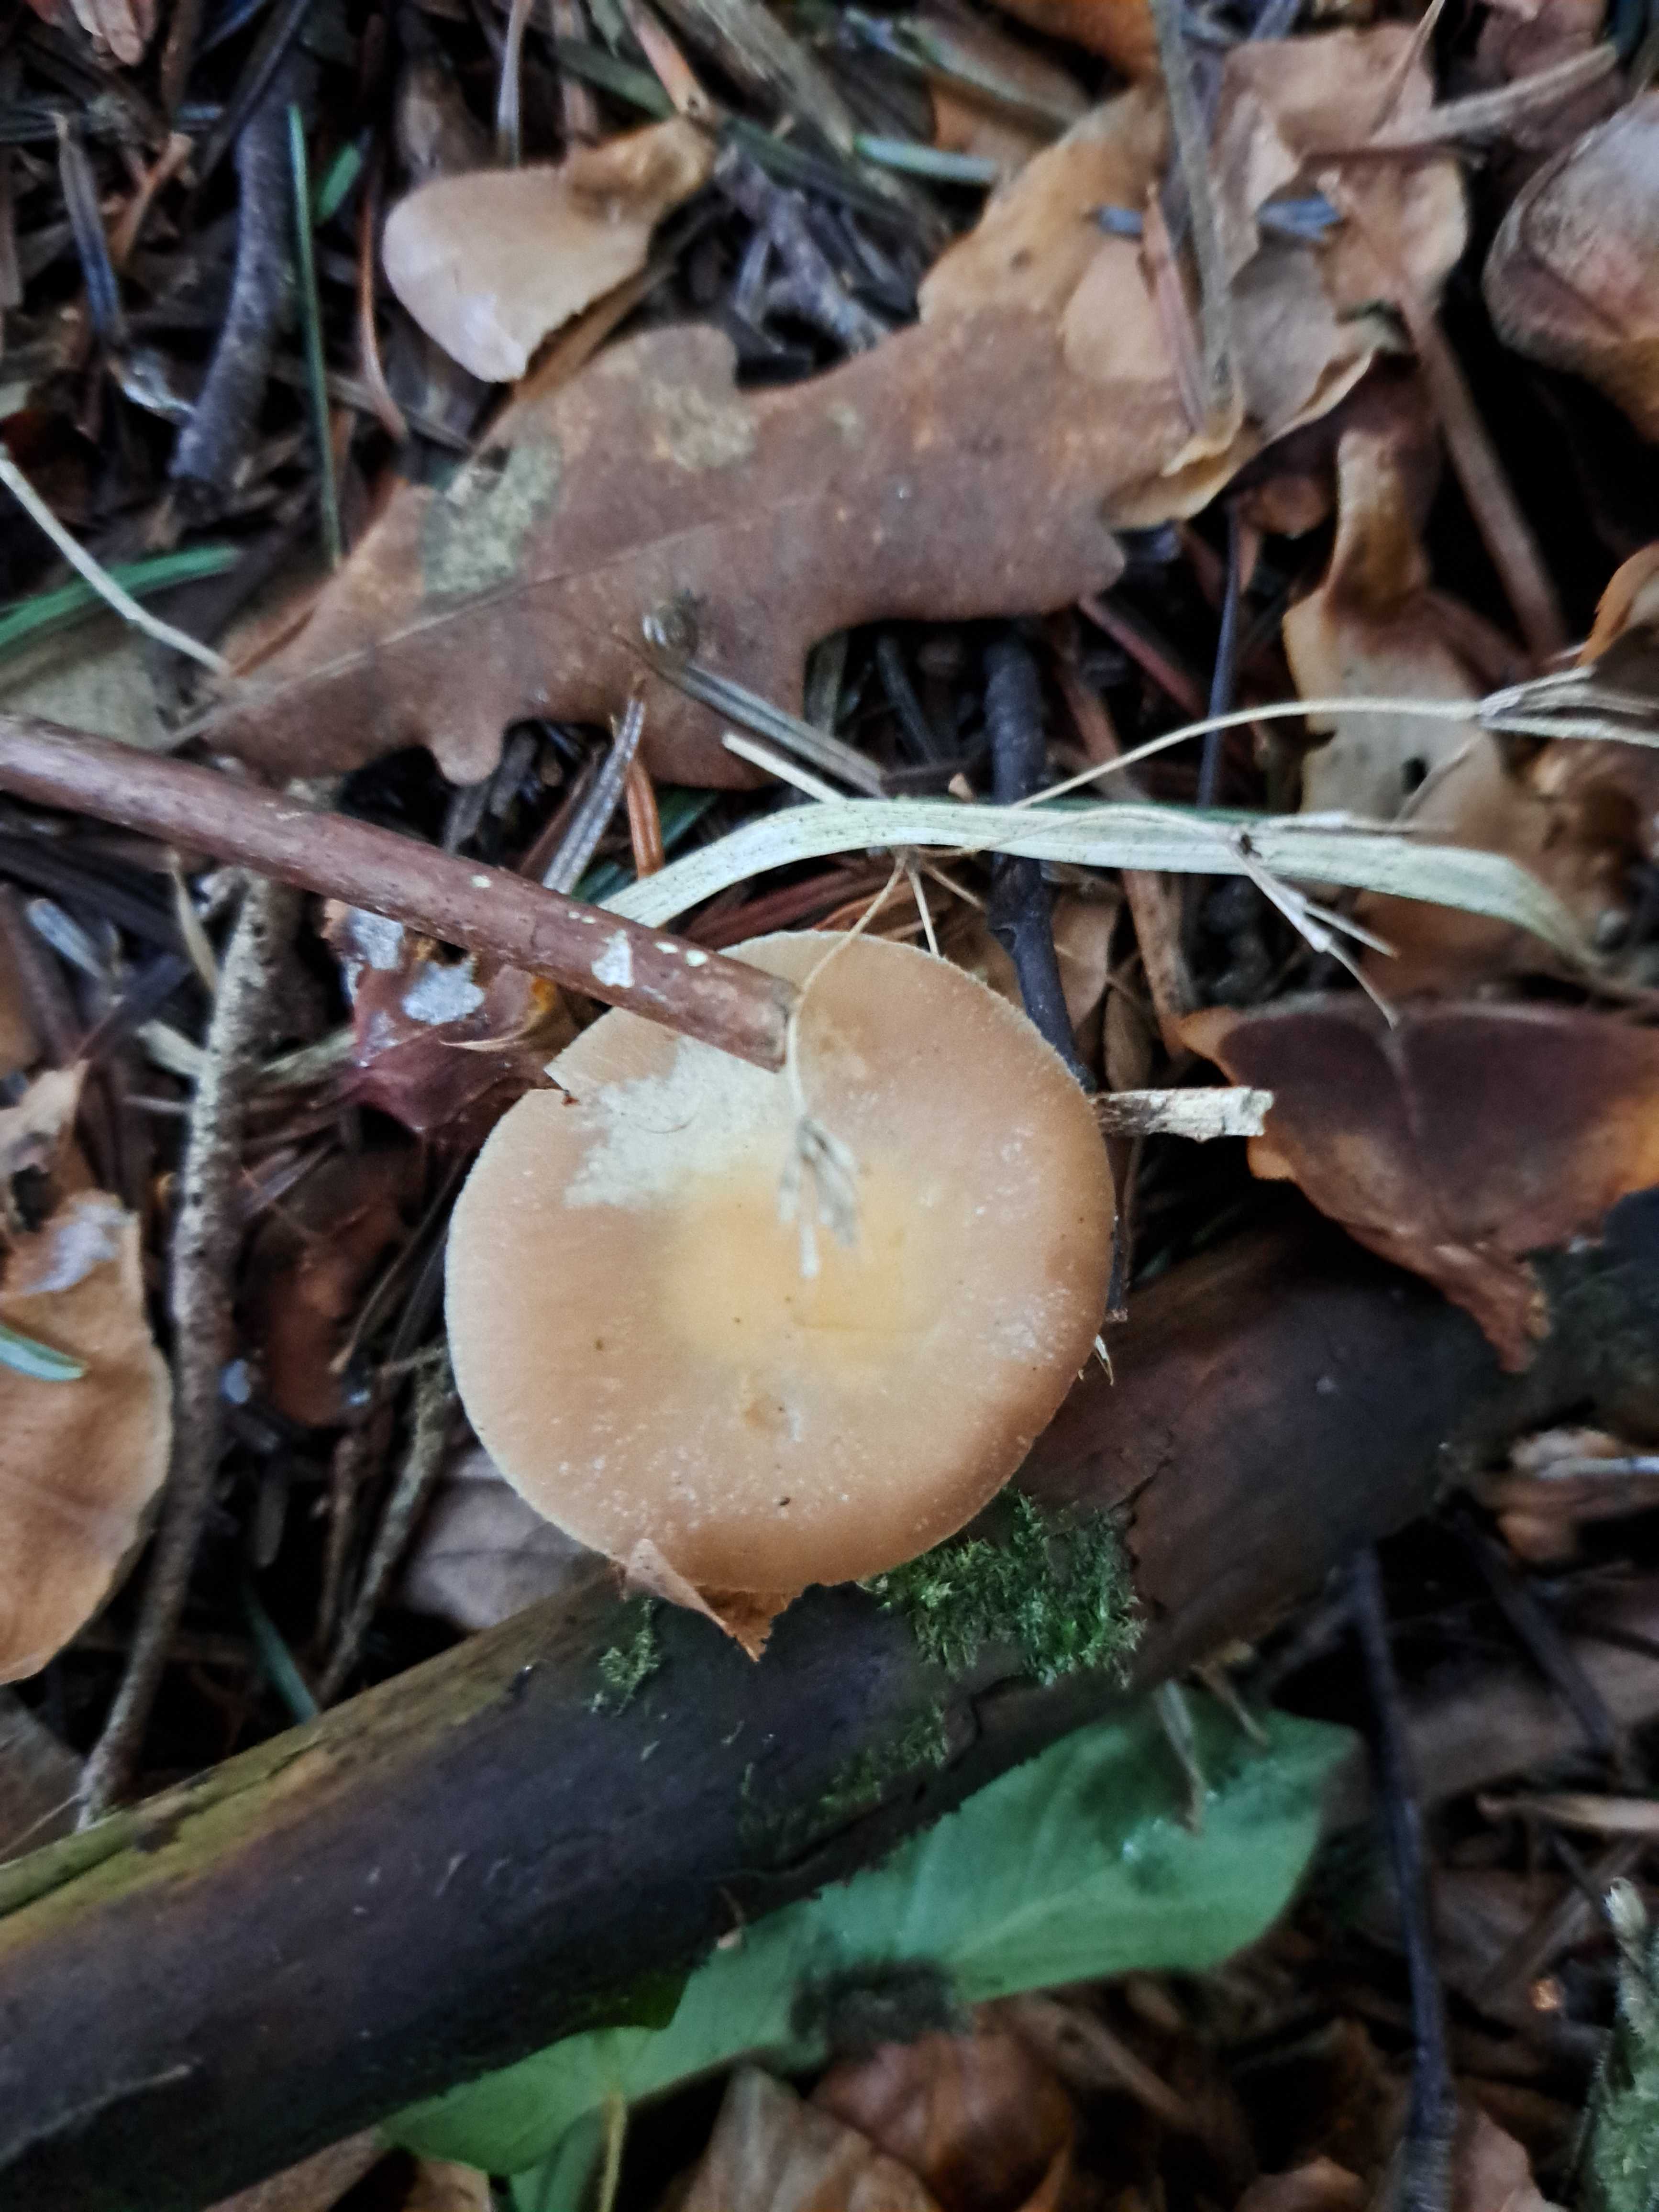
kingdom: Fungi
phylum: Basidiomycota
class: Agaricomycetes
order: Agaricales
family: Tricholomataceae
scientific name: Tricholomataceae
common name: ridderhatfamilien
